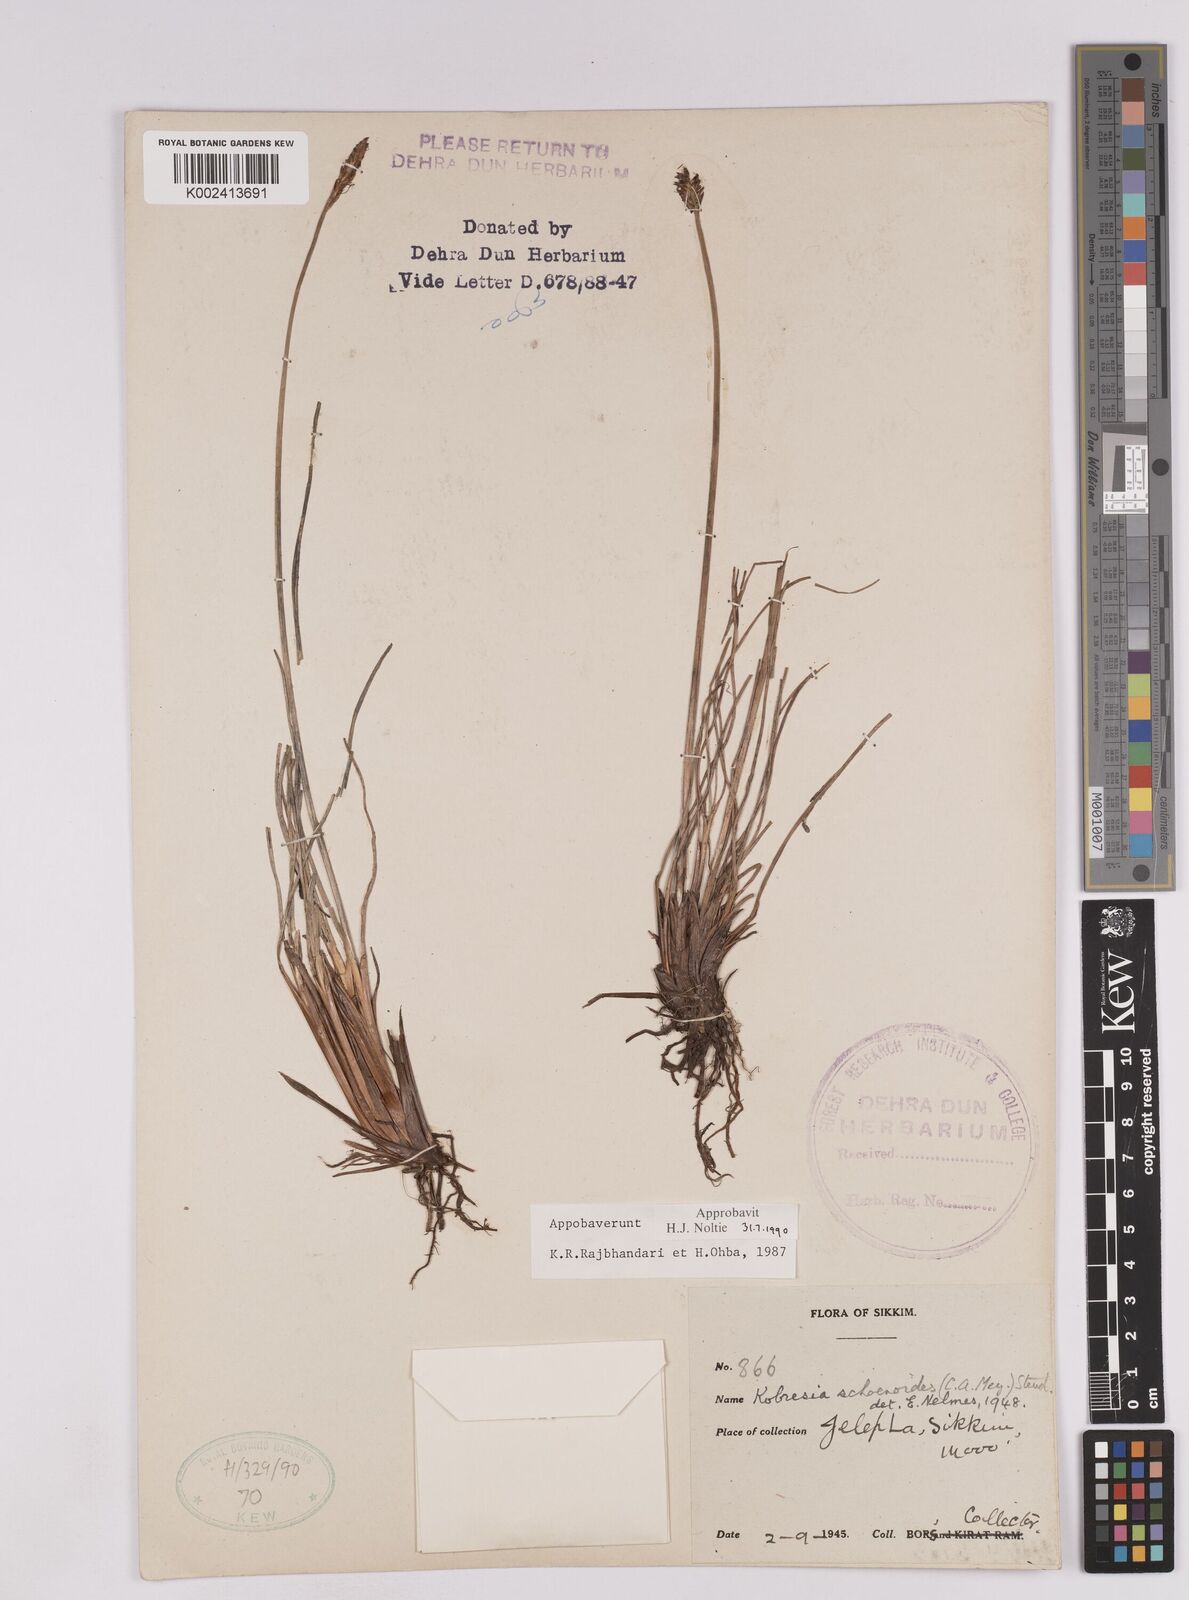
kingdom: Plantae
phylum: Tracheophyta
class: Liliopsida
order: Poales
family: Cyperaceae
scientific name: Cyperaceae
